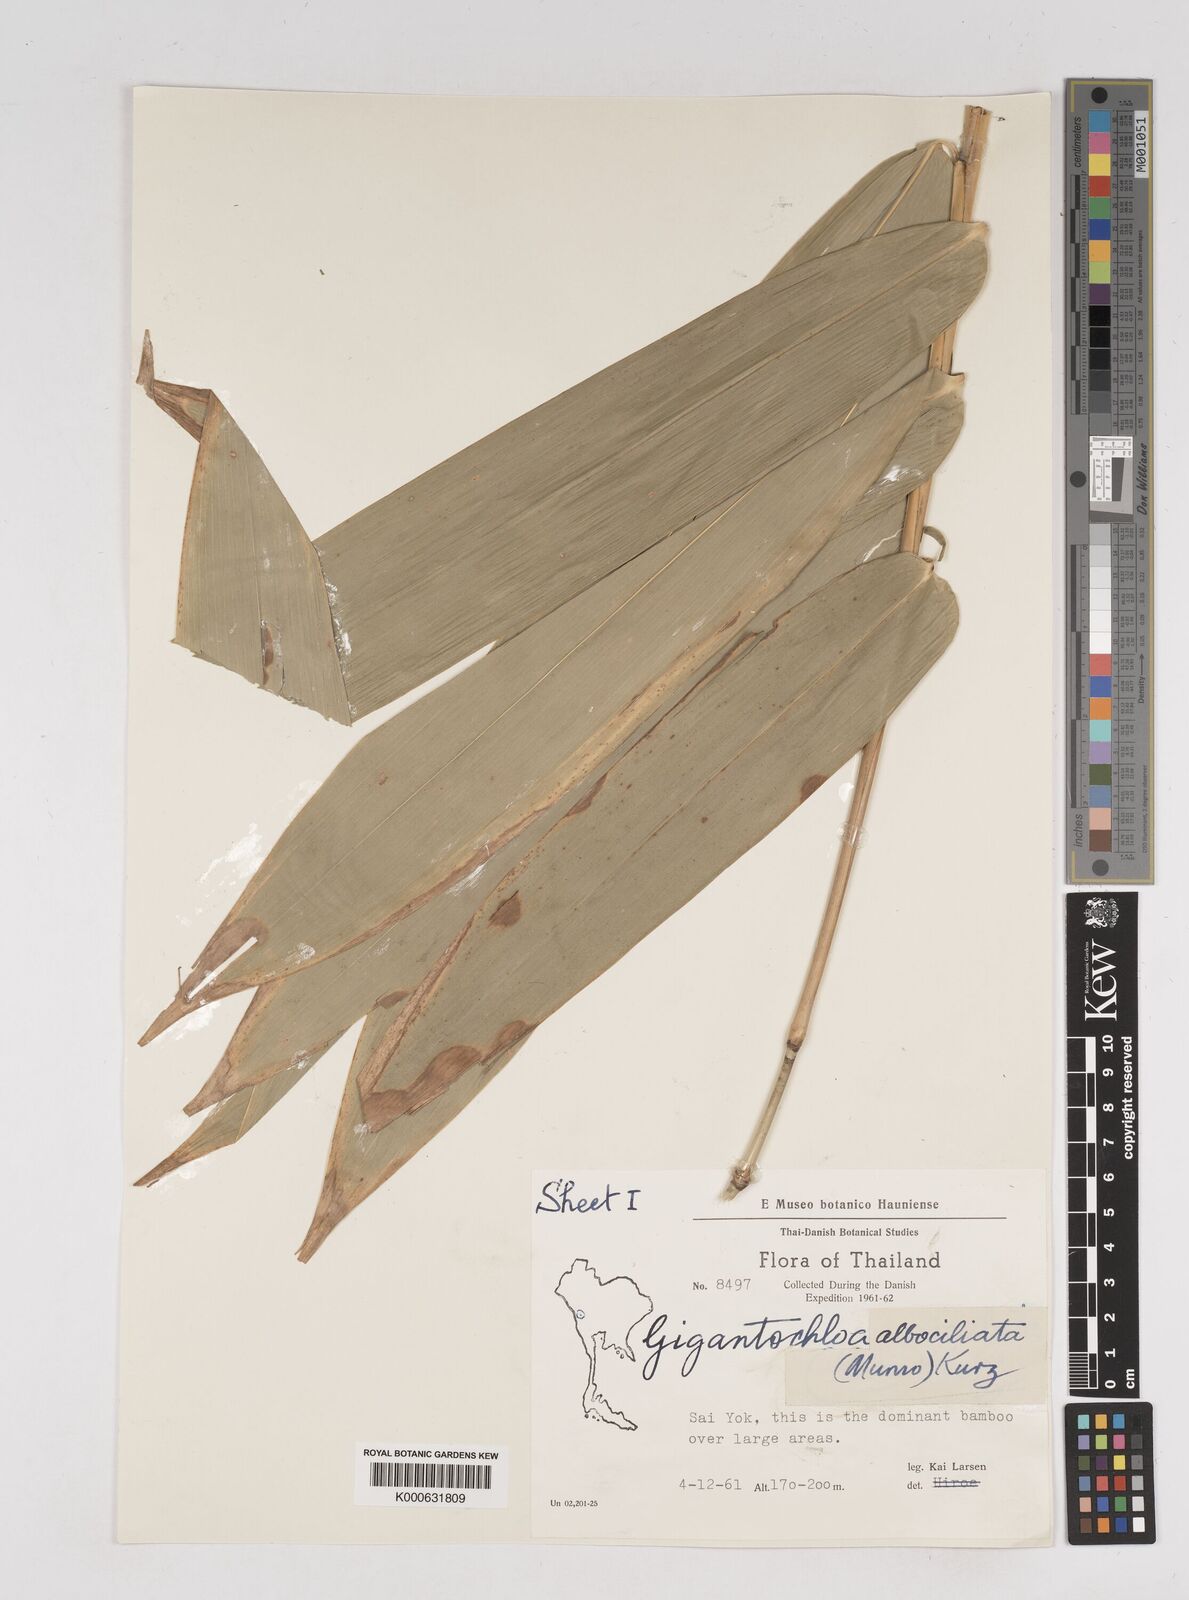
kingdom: Plantae
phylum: Tracheophyta
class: Liliopsida
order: Poales
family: Poaceae
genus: Gigantochloa
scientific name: Gigantochloa
